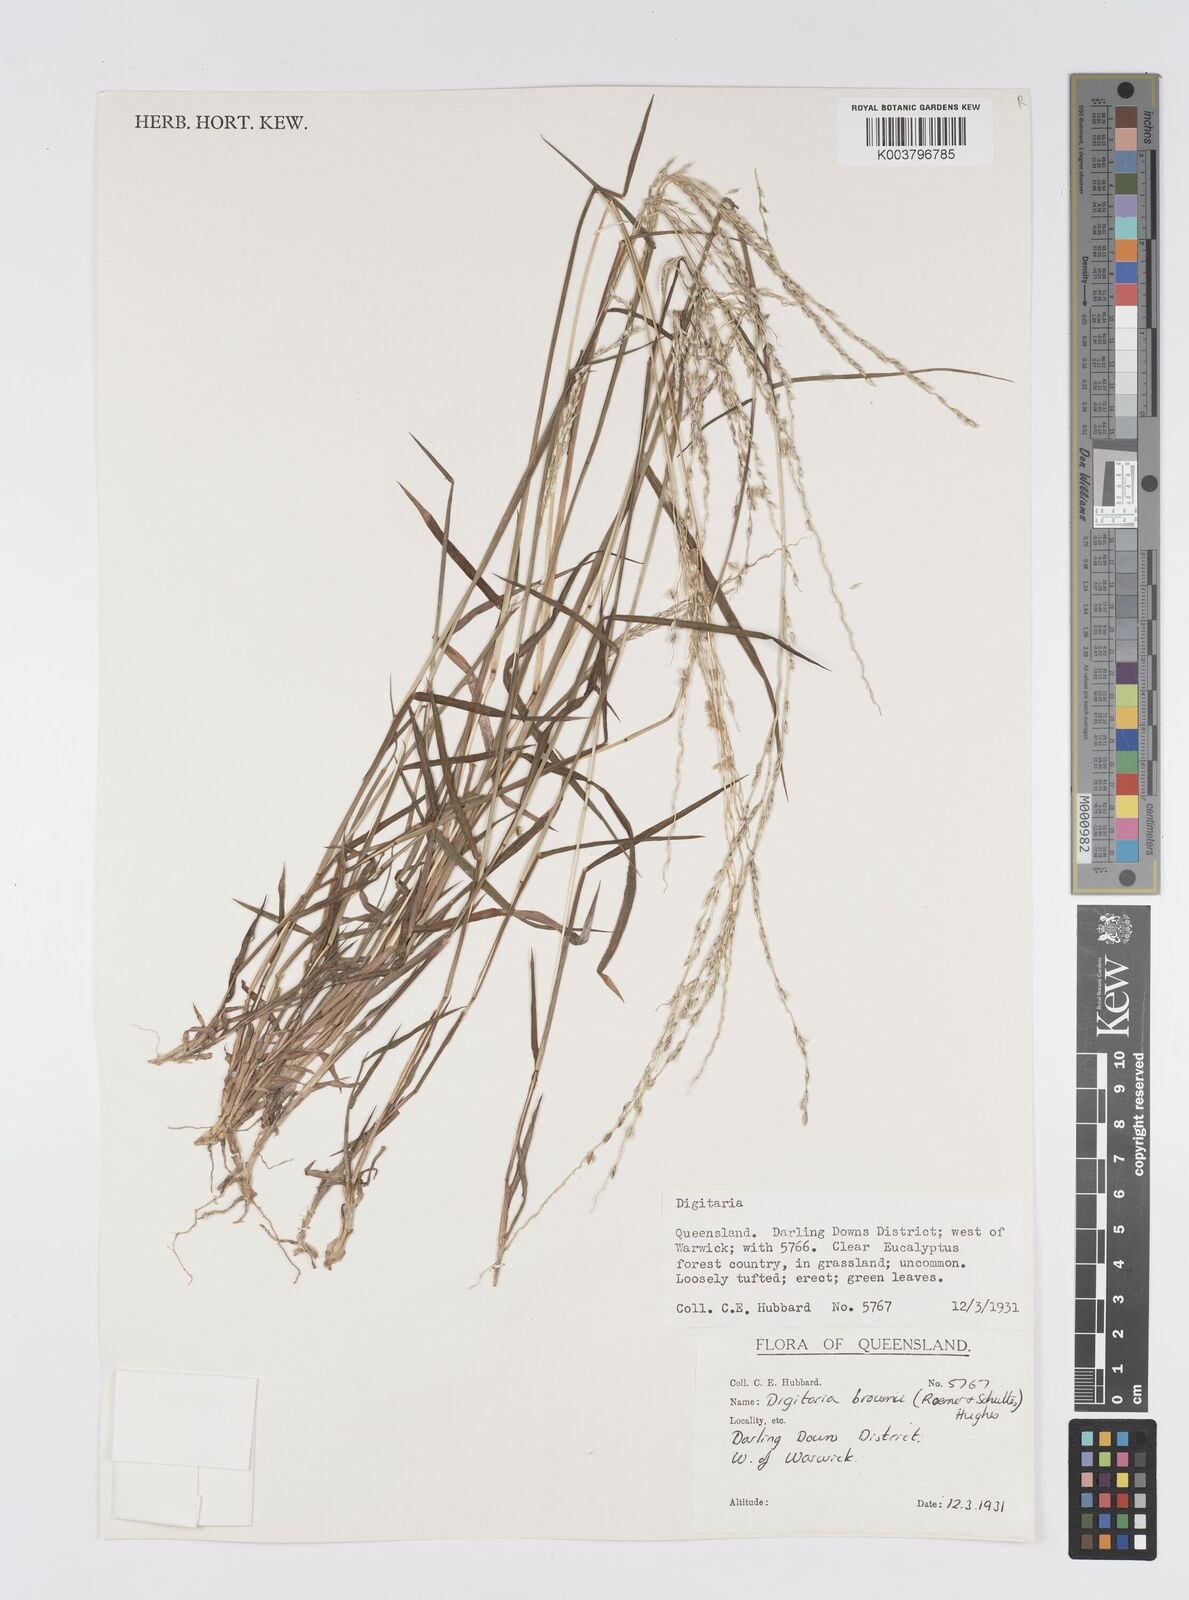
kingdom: Plantae
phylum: Tracheophyta
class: Liliopsida
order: Poales
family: Poaceae
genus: Digitaria
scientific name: Digitaria brownii
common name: Cotton grass
